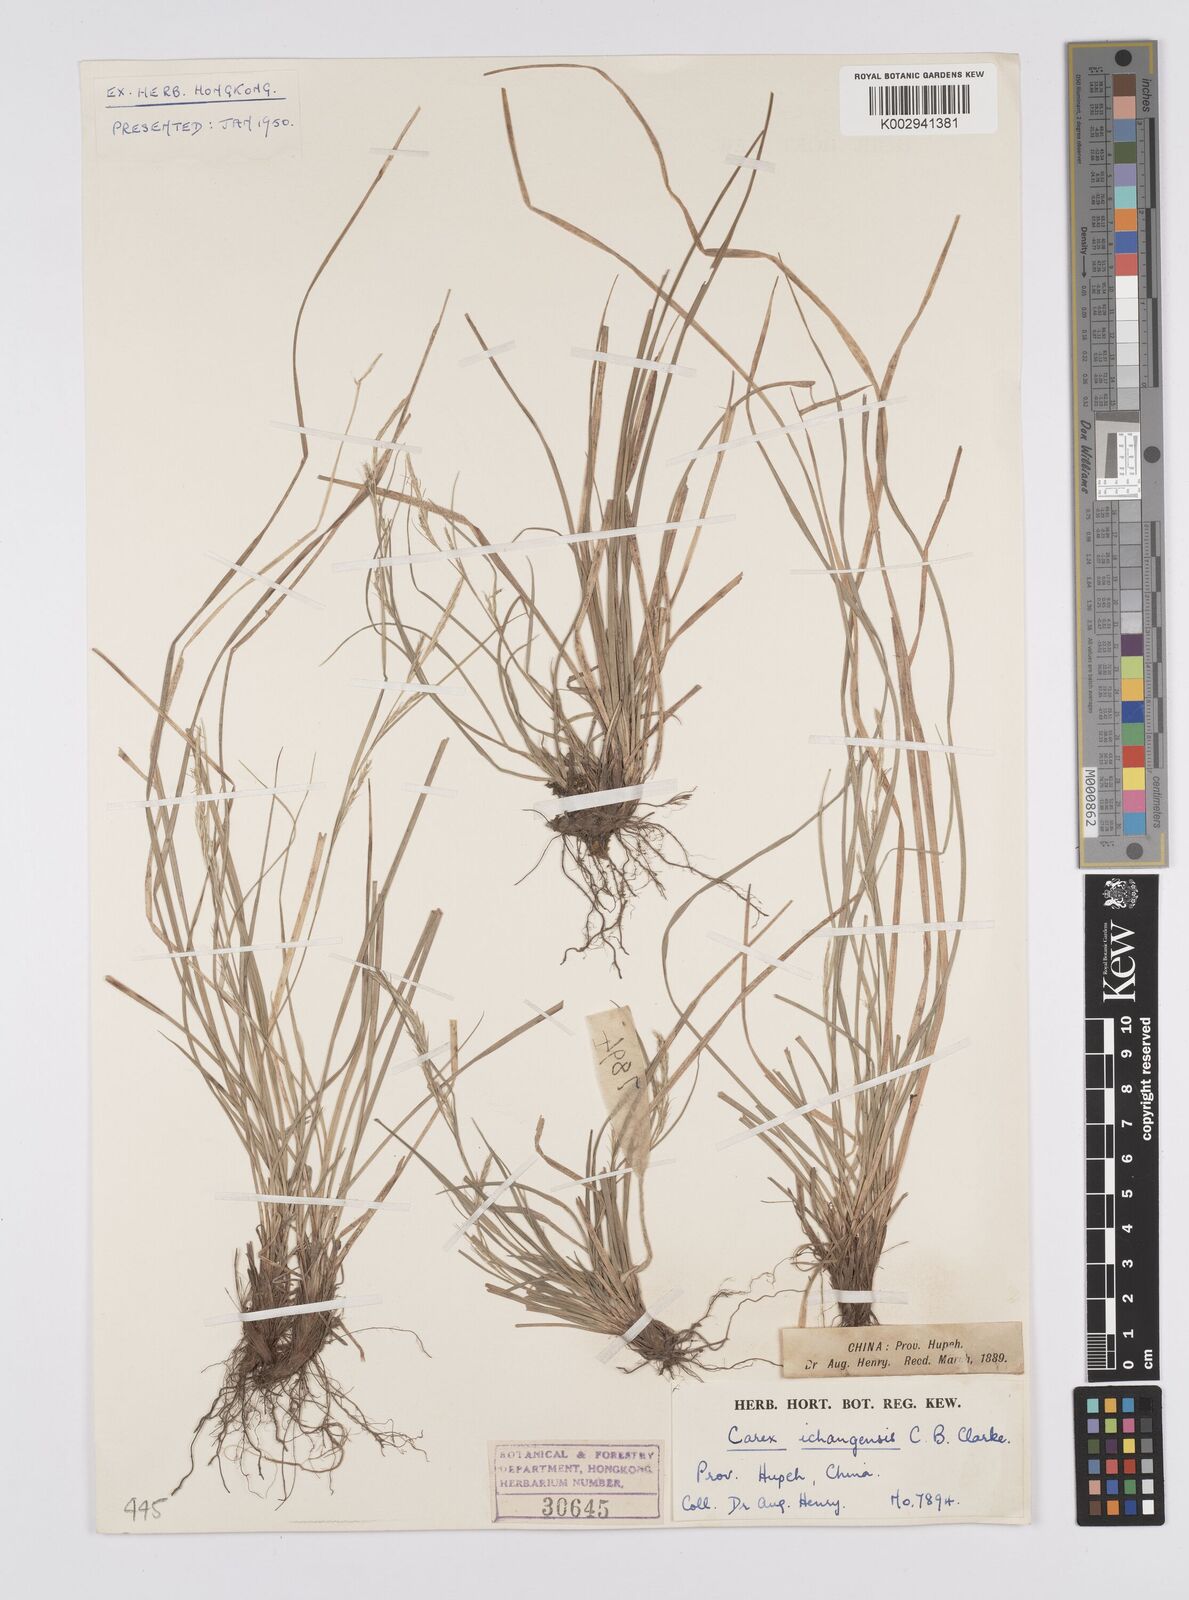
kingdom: Plantae
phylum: Tracheophyta
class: Liliopsida
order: Poales
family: Cyperaceae
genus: Carex
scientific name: Carex davidii
